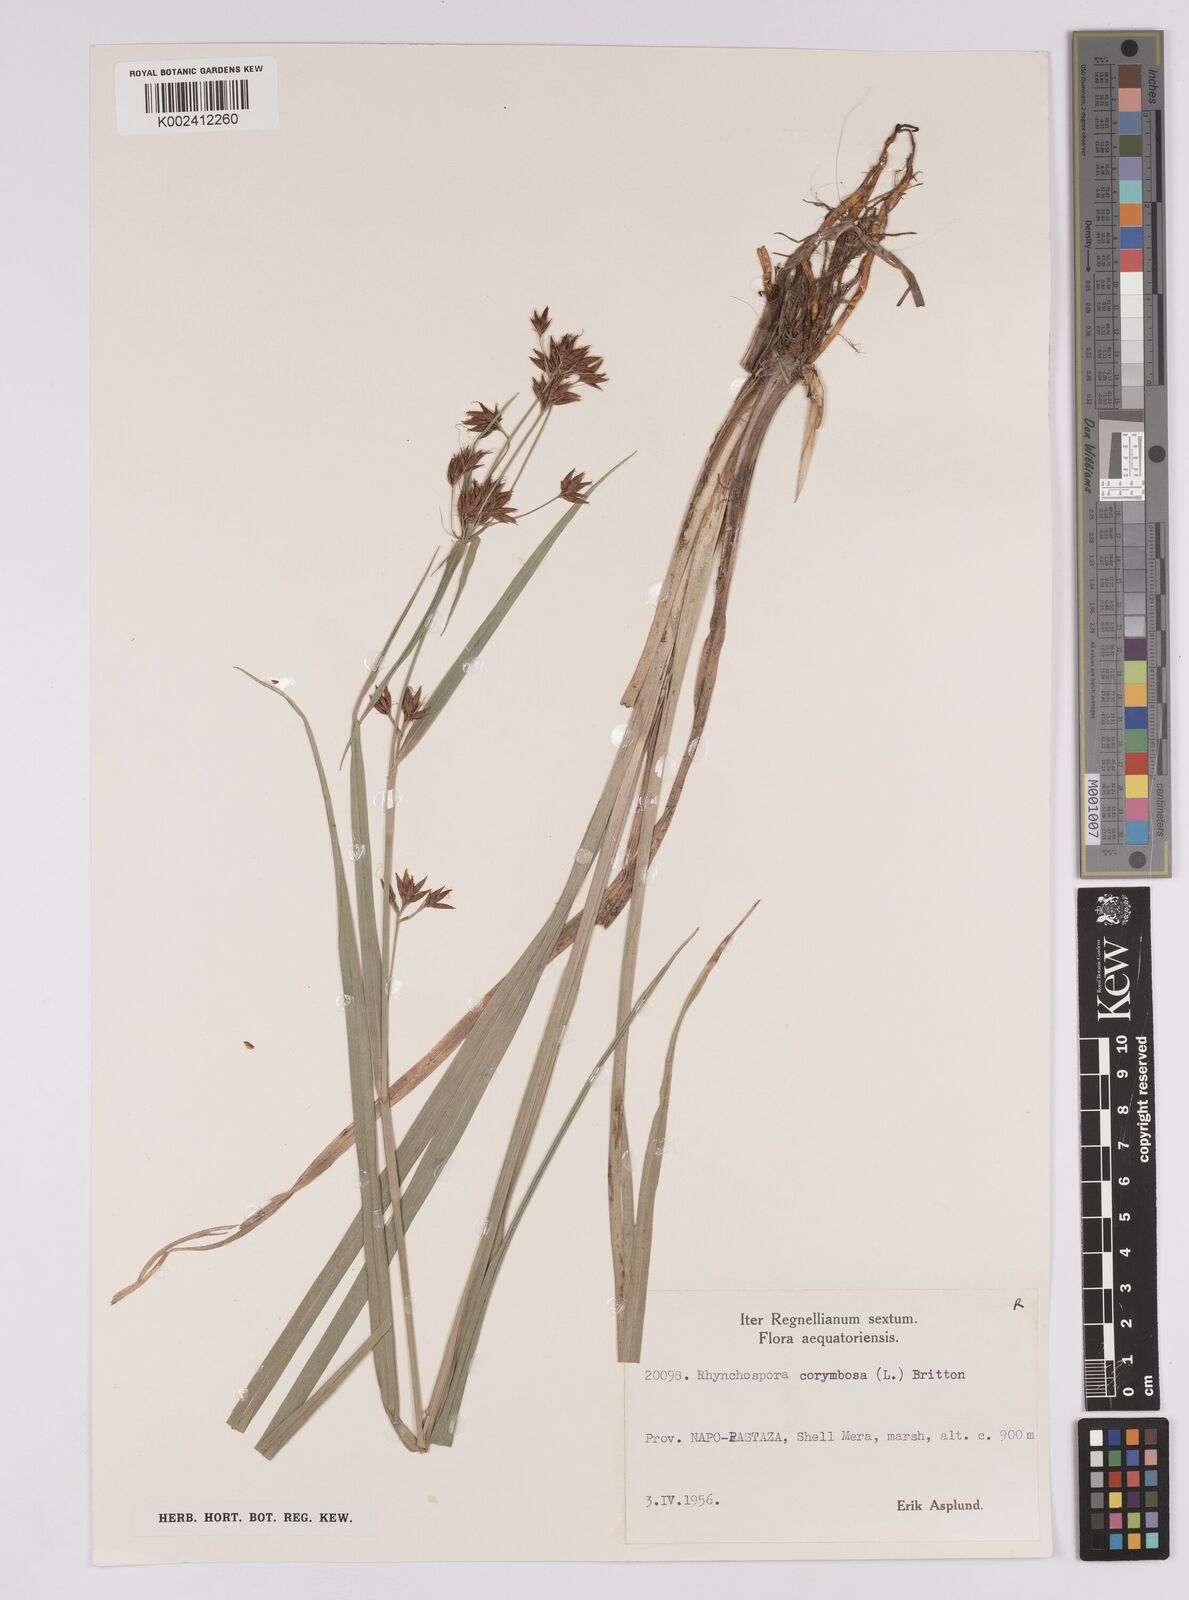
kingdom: Plantae
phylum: Tracheophyta
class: Liliopsida
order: Poales
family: Cyperaceae
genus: Rhynchospora
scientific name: Rhynchospora corymbosa
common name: Golden beak sedge
